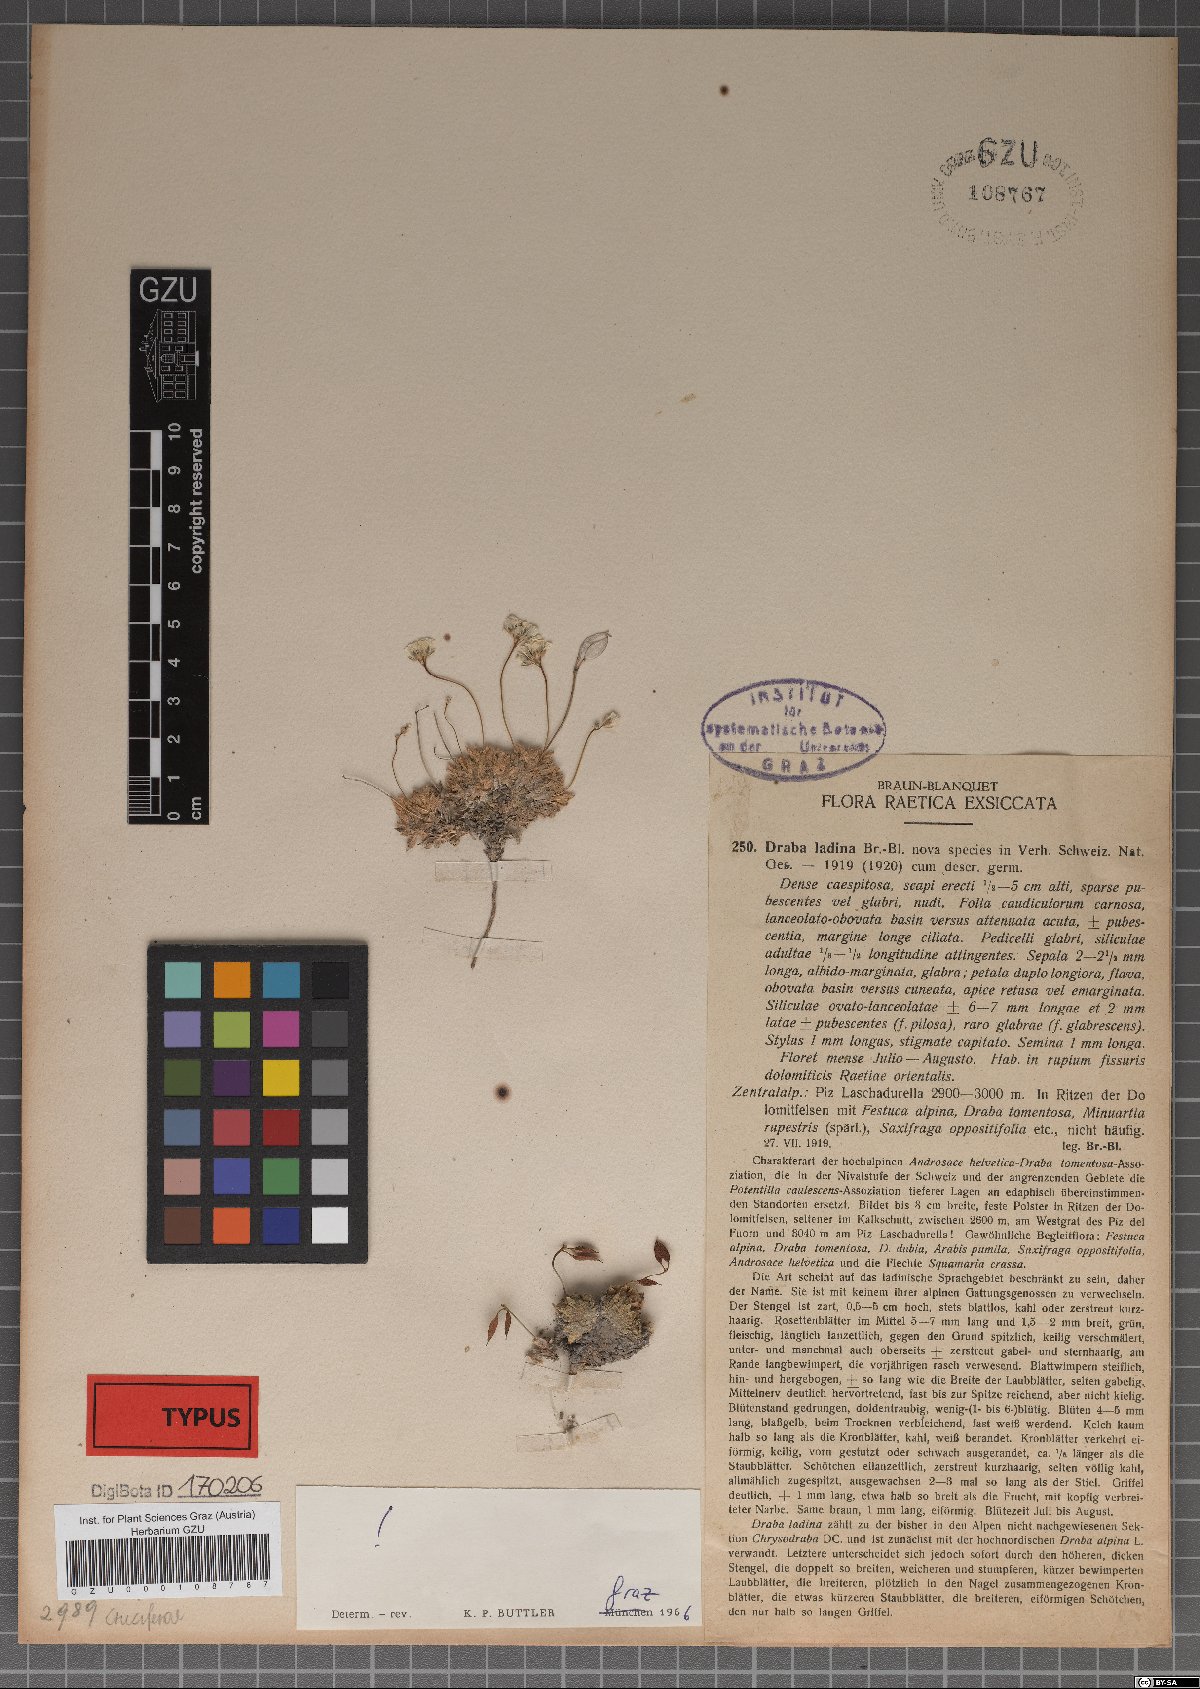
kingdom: Plantae
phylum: Tracheophyta
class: Magnoliopsida
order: Brassicales
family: Brassicaceae
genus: Draba
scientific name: Draba ladina
